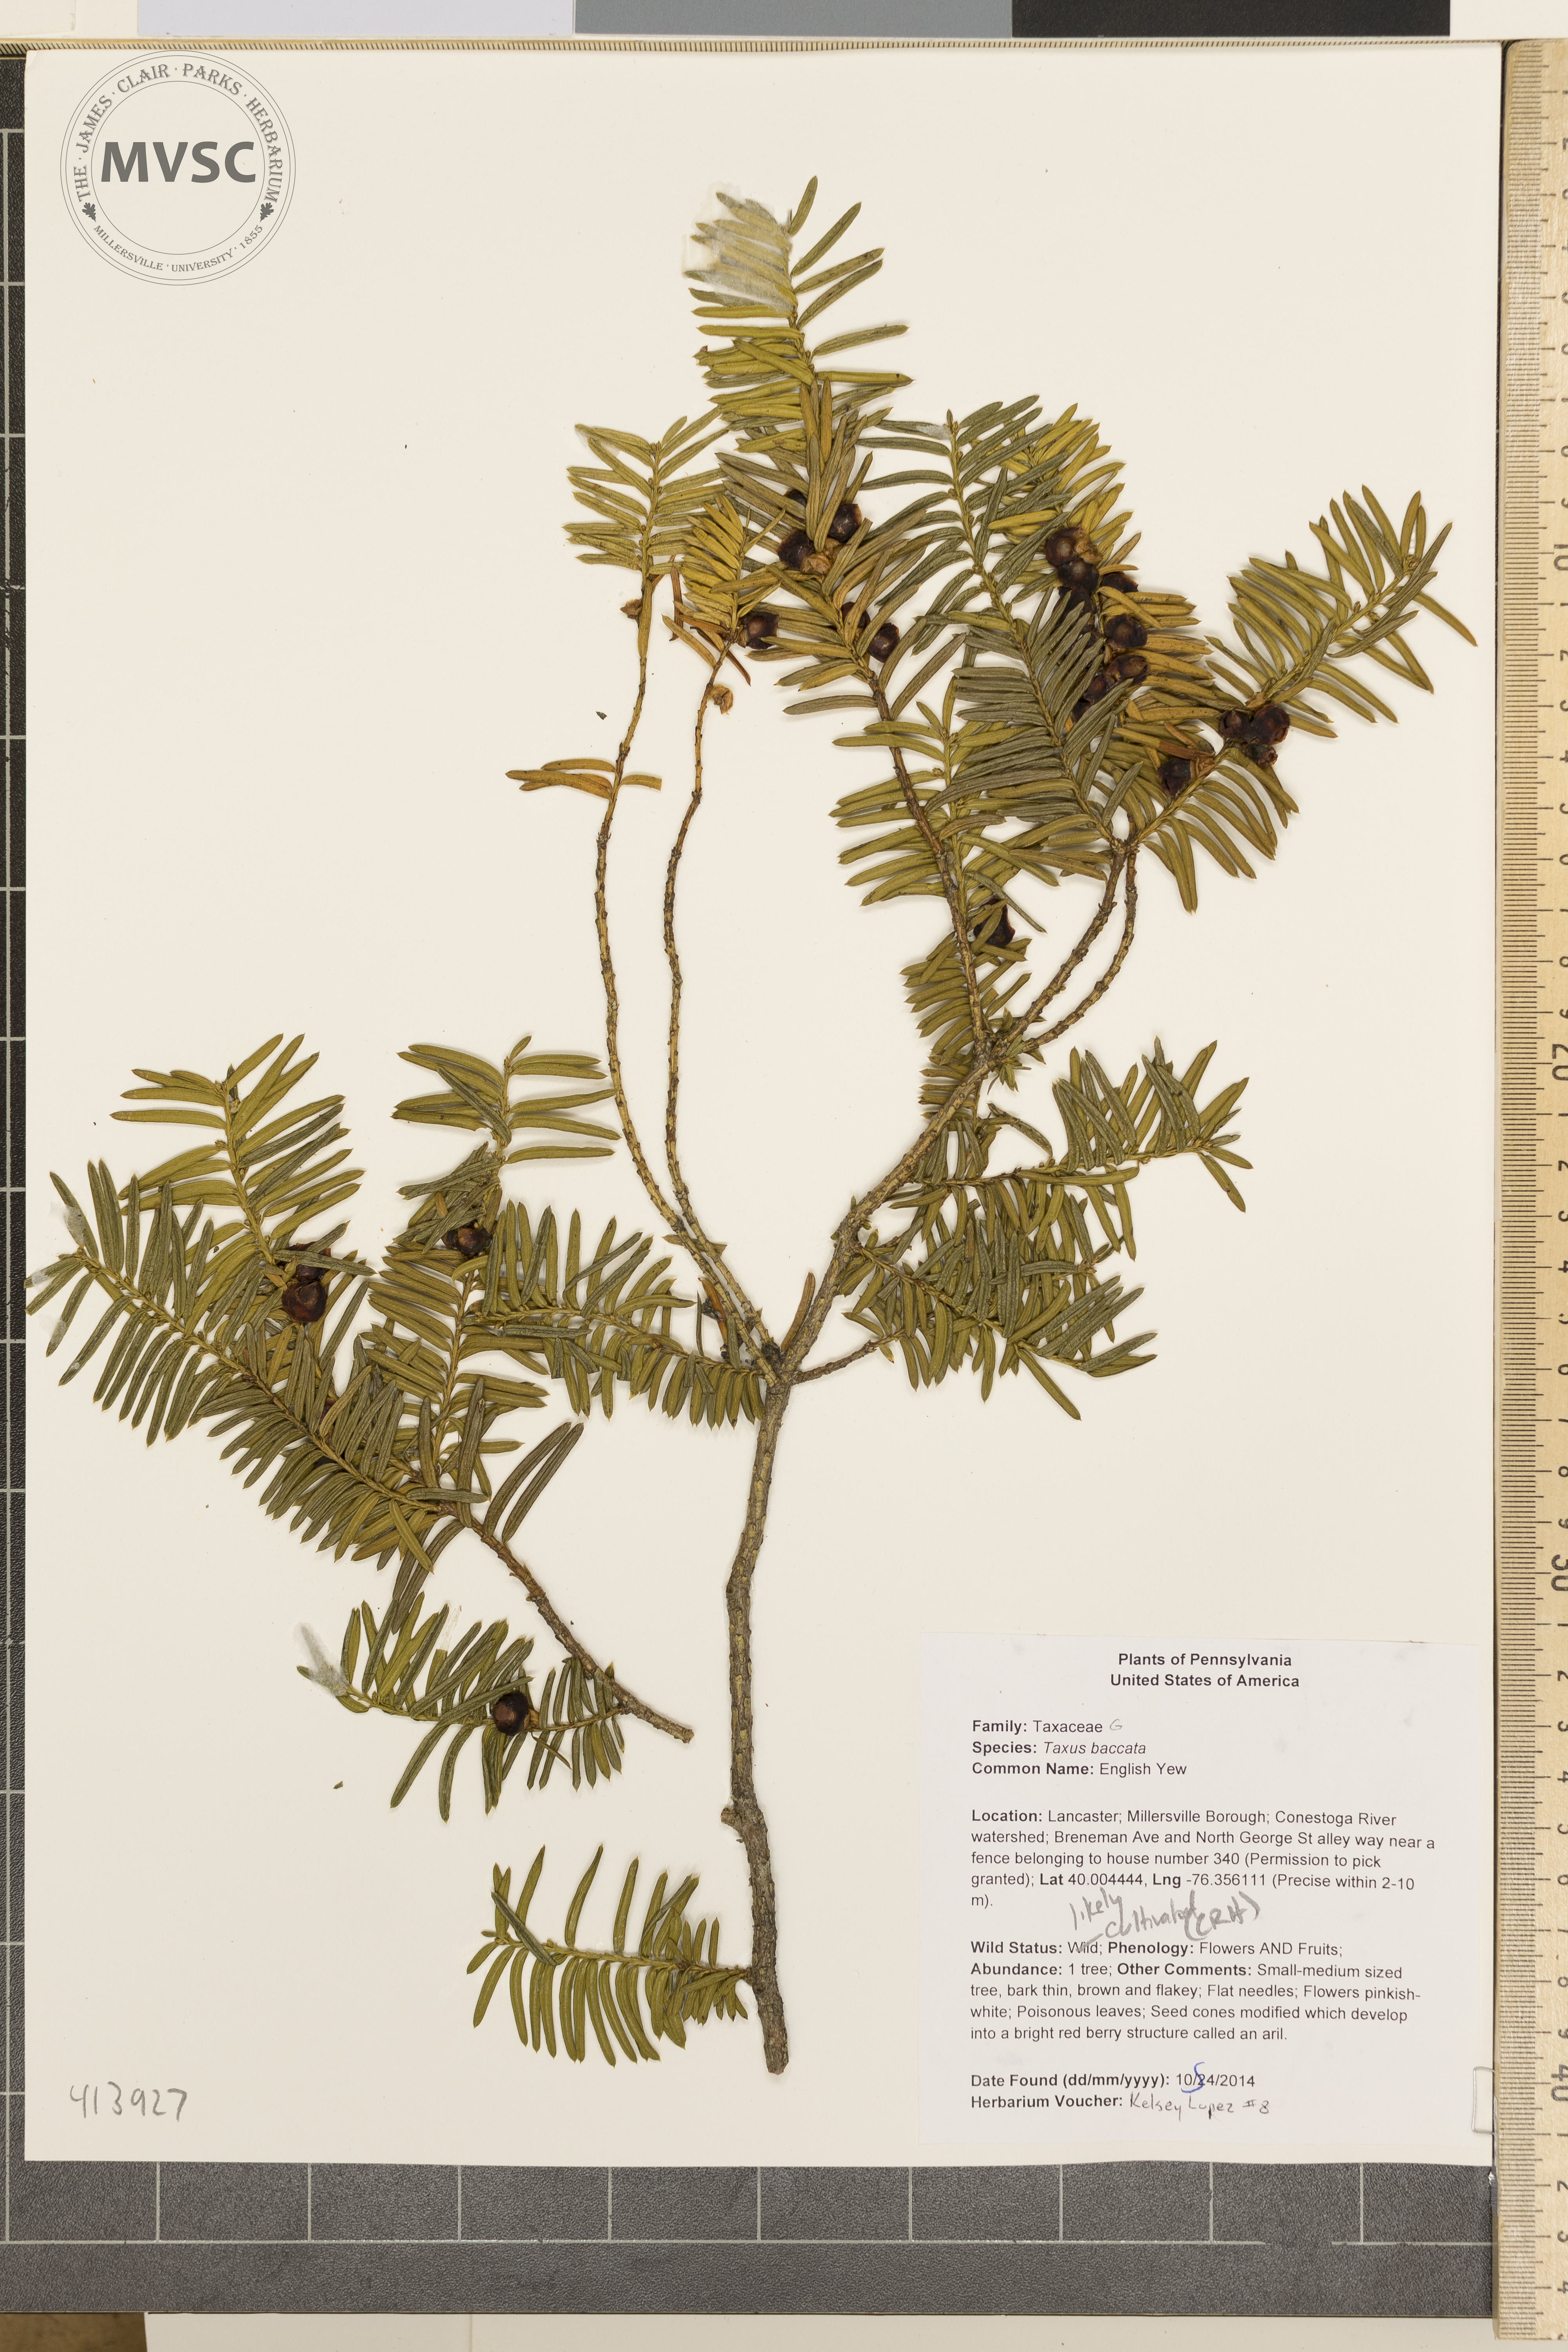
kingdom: Plantae
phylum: Tracheophyta
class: Pinopsida
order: Pinales
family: Taxaceae
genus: Taxus
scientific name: Taxus baccata
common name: English Yew
